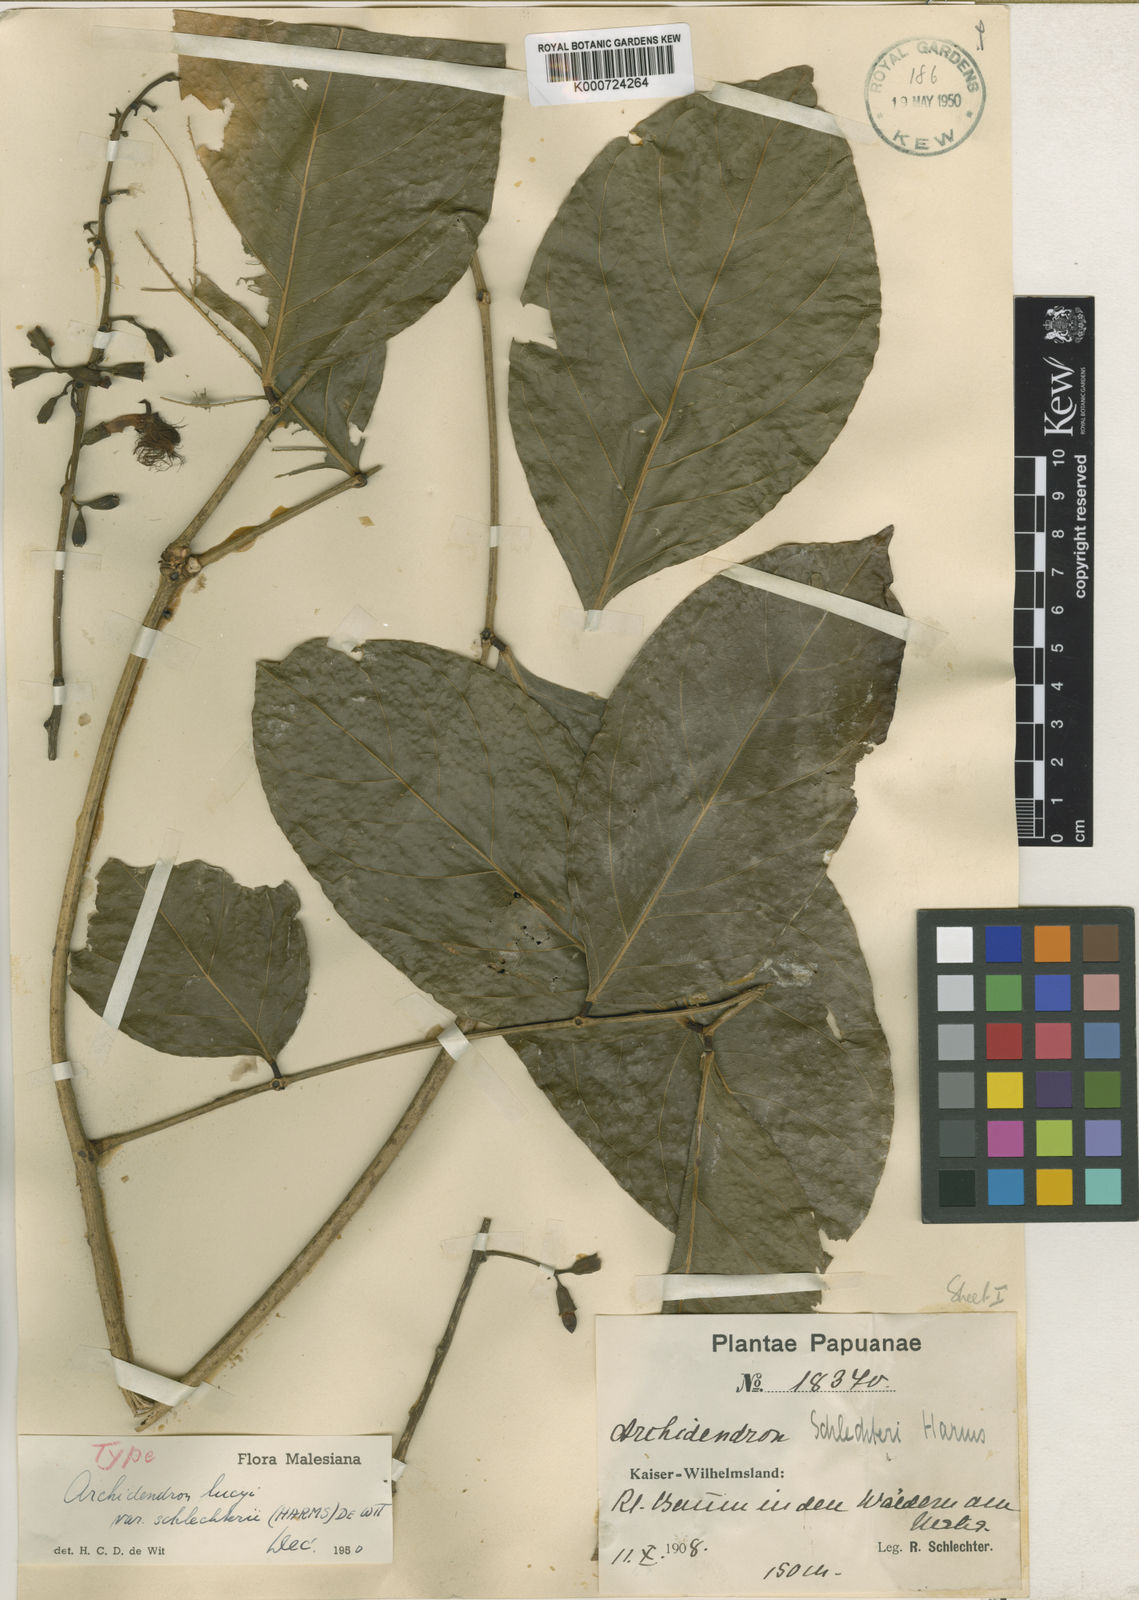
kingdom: Plantae
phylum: Tracheophyta
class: Magnoliopsida
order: Fabales
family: Fabaceae
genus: Archidendron
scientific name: Archidendron lucyi
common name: Scarlet bean
